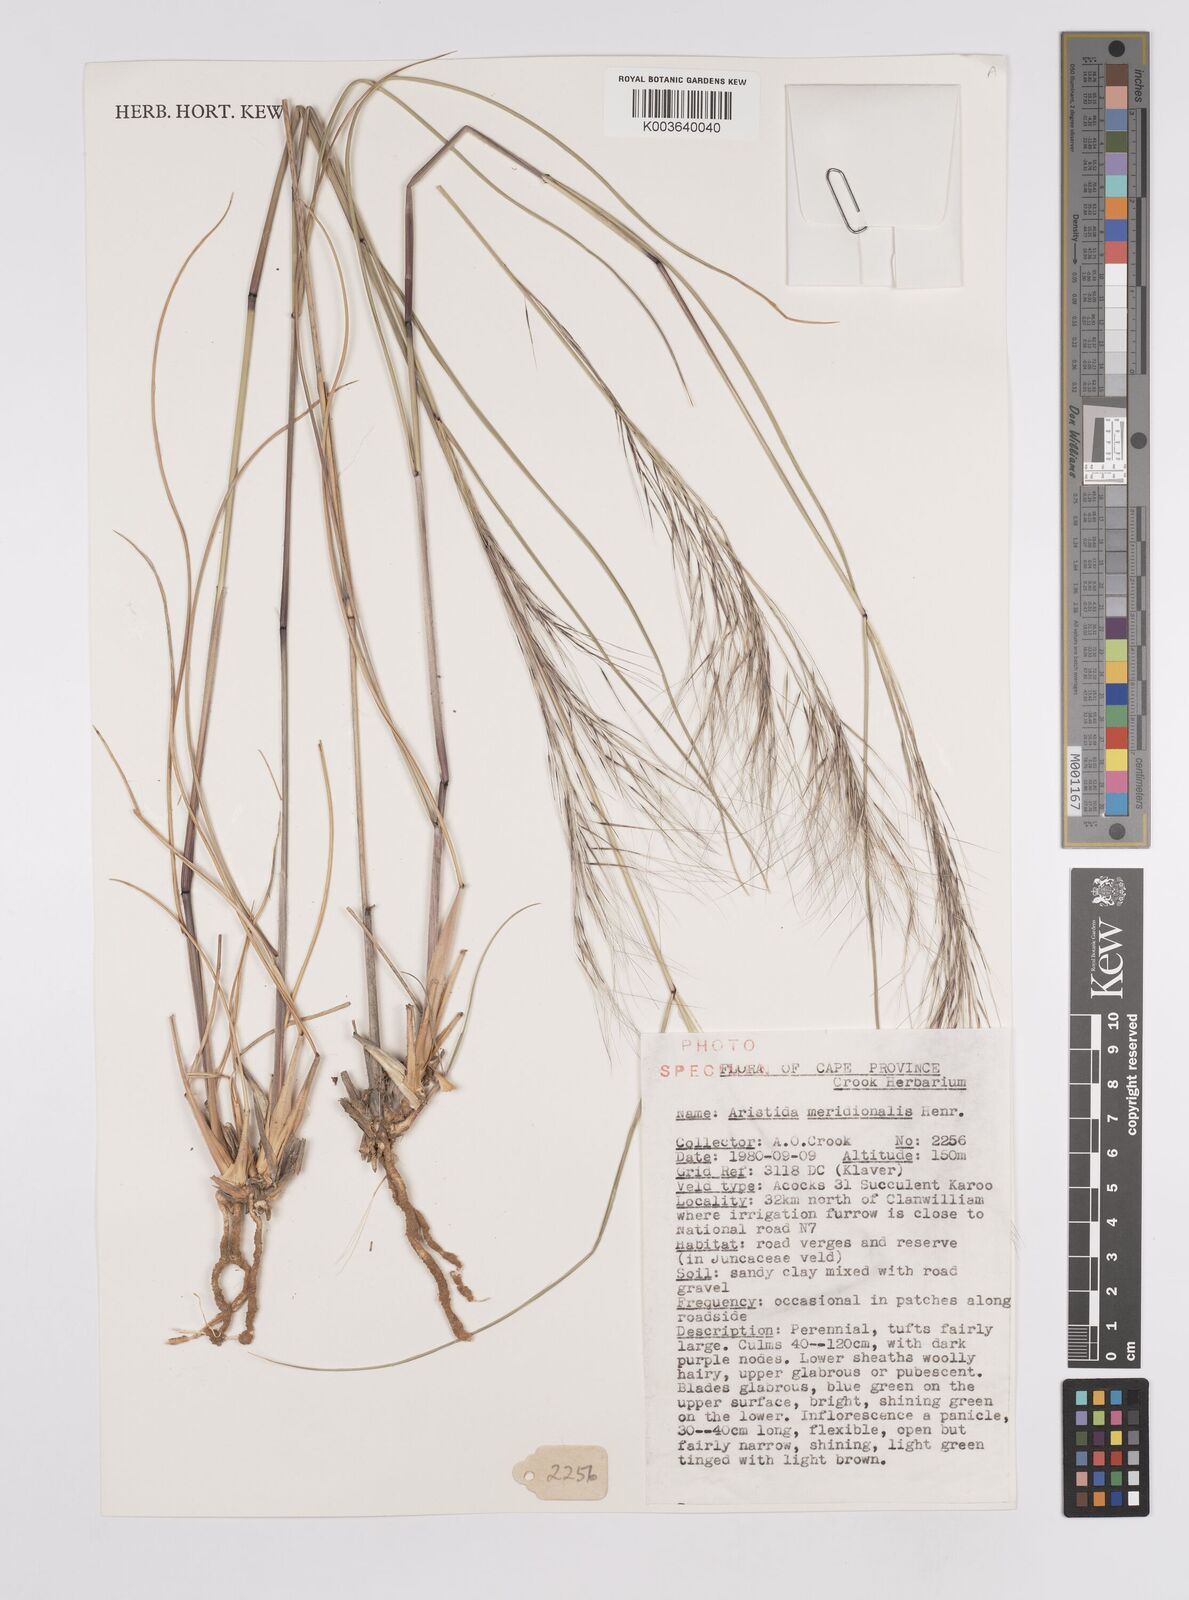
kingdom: Plantae
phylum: Tracheophyta
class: Liliopsida
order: Poales
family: Poaceae
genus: Aristida
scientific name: Aristida meridionalis
